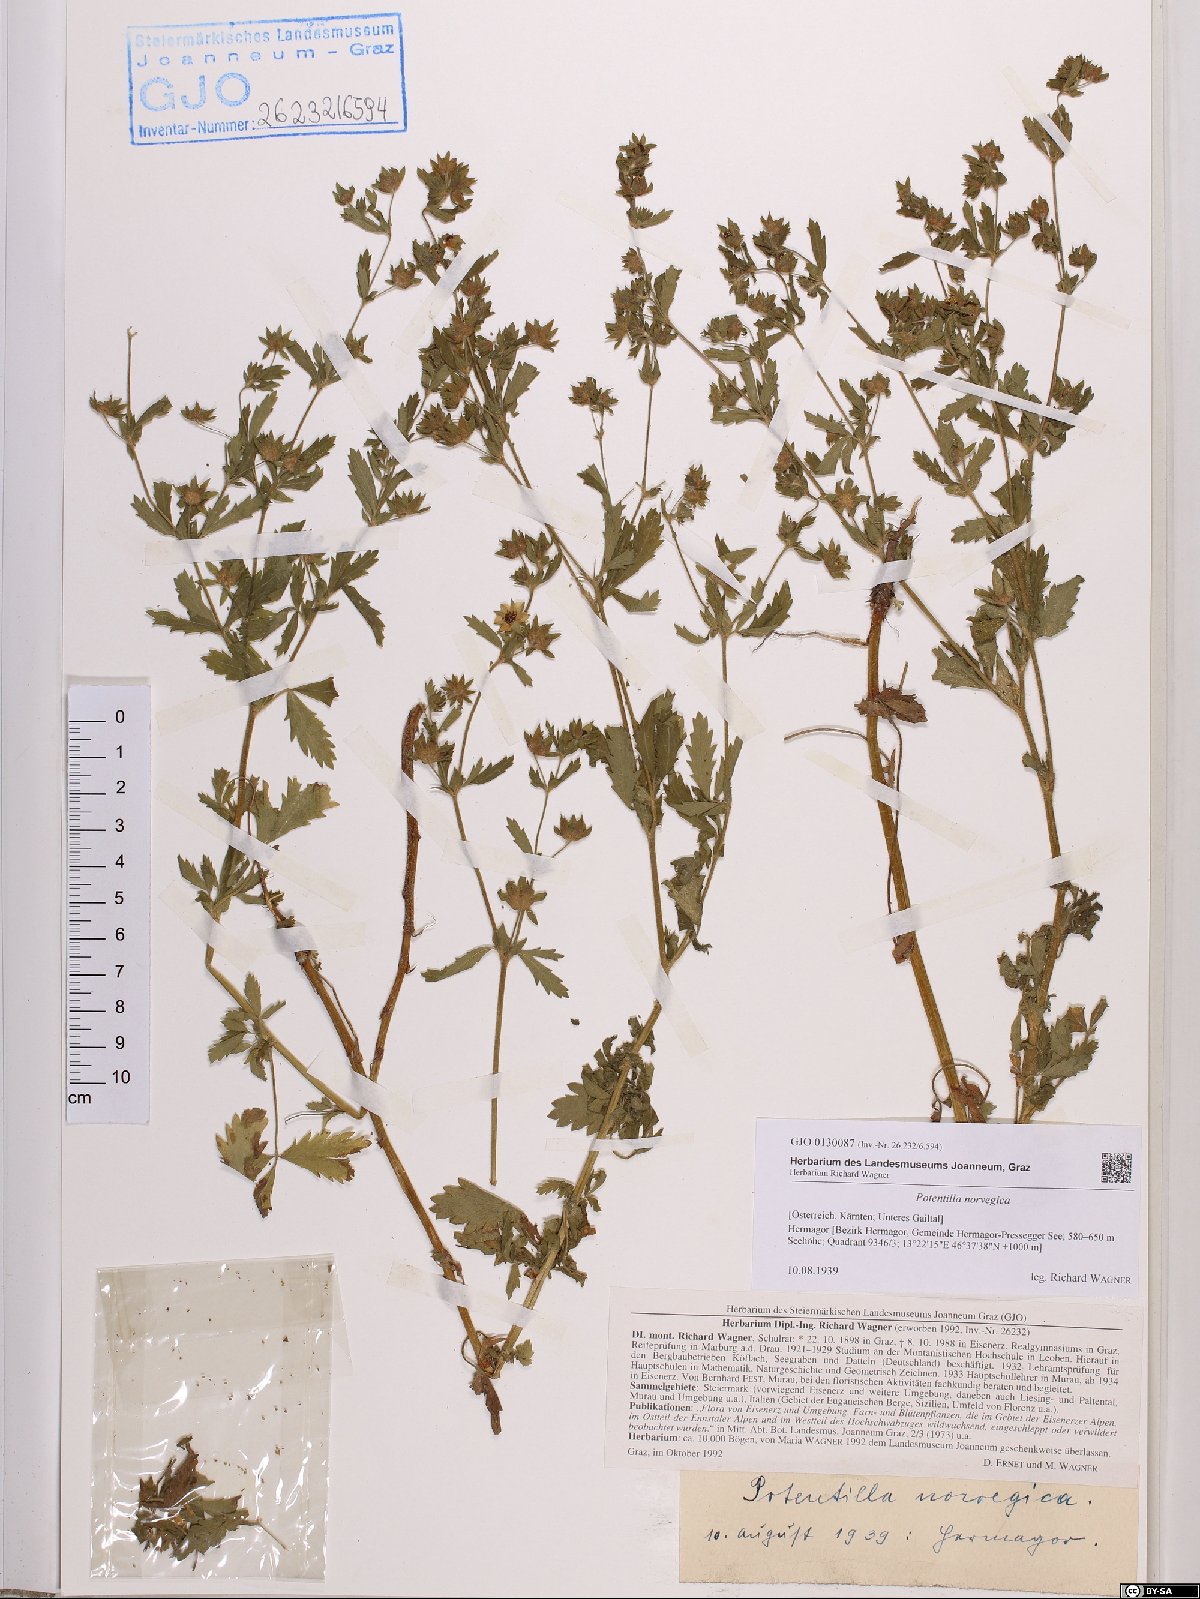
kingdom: Plantae
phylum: Tracheophyta
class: Magnoliopsida
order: Rosales
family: Rosaceae
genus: Potentilla
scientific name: Potentilla norvegica
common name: Ternate-leaved cinquefoil
